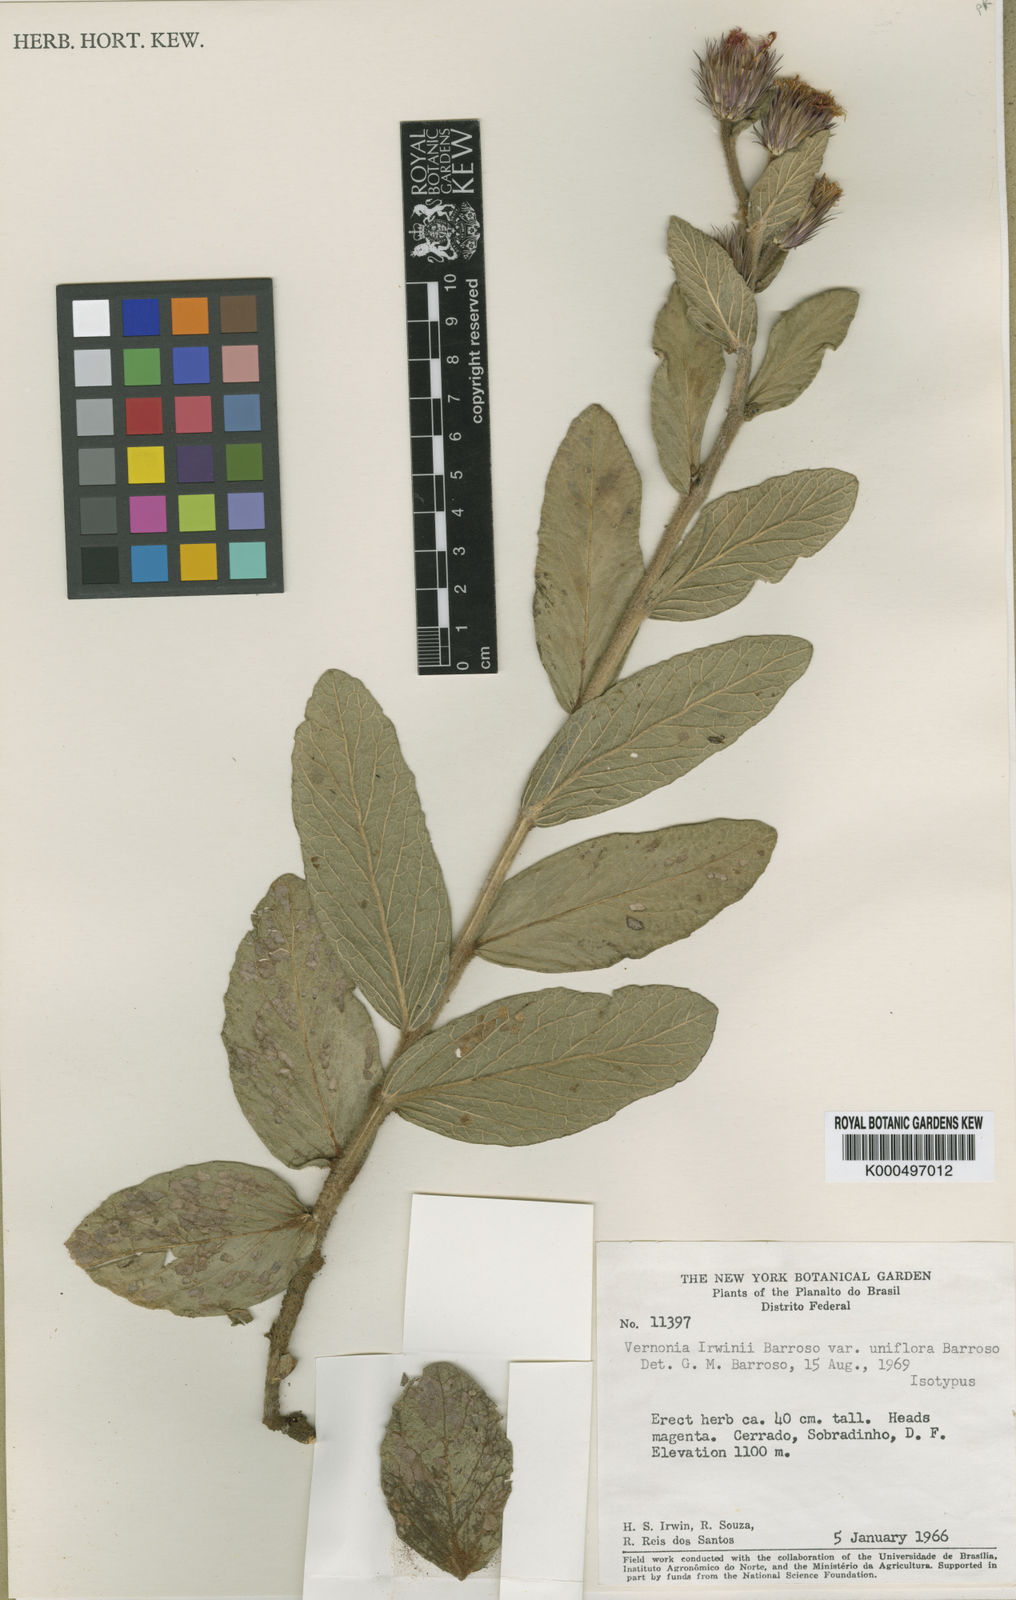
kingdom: Plantae
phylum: Tracheophyta
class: Magnoliopsida
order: Asterales
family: Asteraceae
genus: Lessingianthus
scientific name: Lessingianthus irwinii
